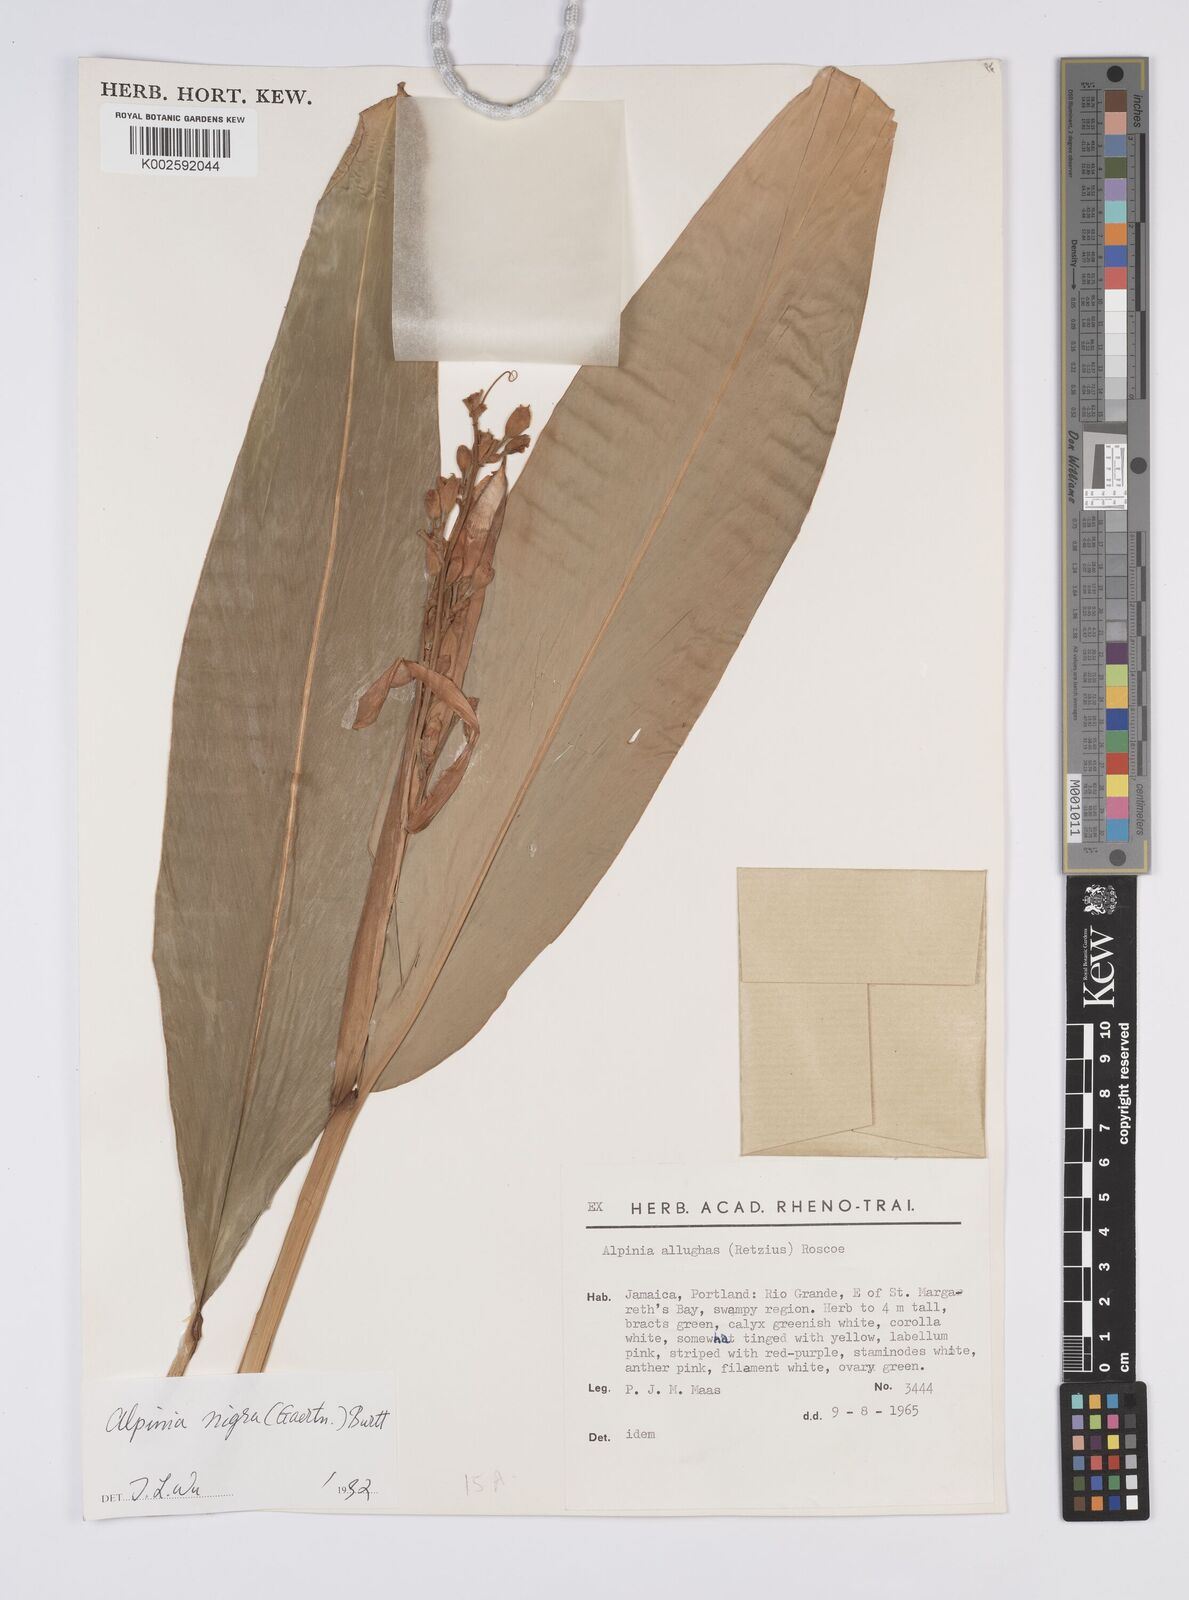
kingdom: Plantae
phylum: Tracheophyta
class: Liliopsida
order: Zingiberales
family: Zingiberaceae
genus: Alpinia
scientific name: Alpinia nigra
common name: Black fruited galanga
